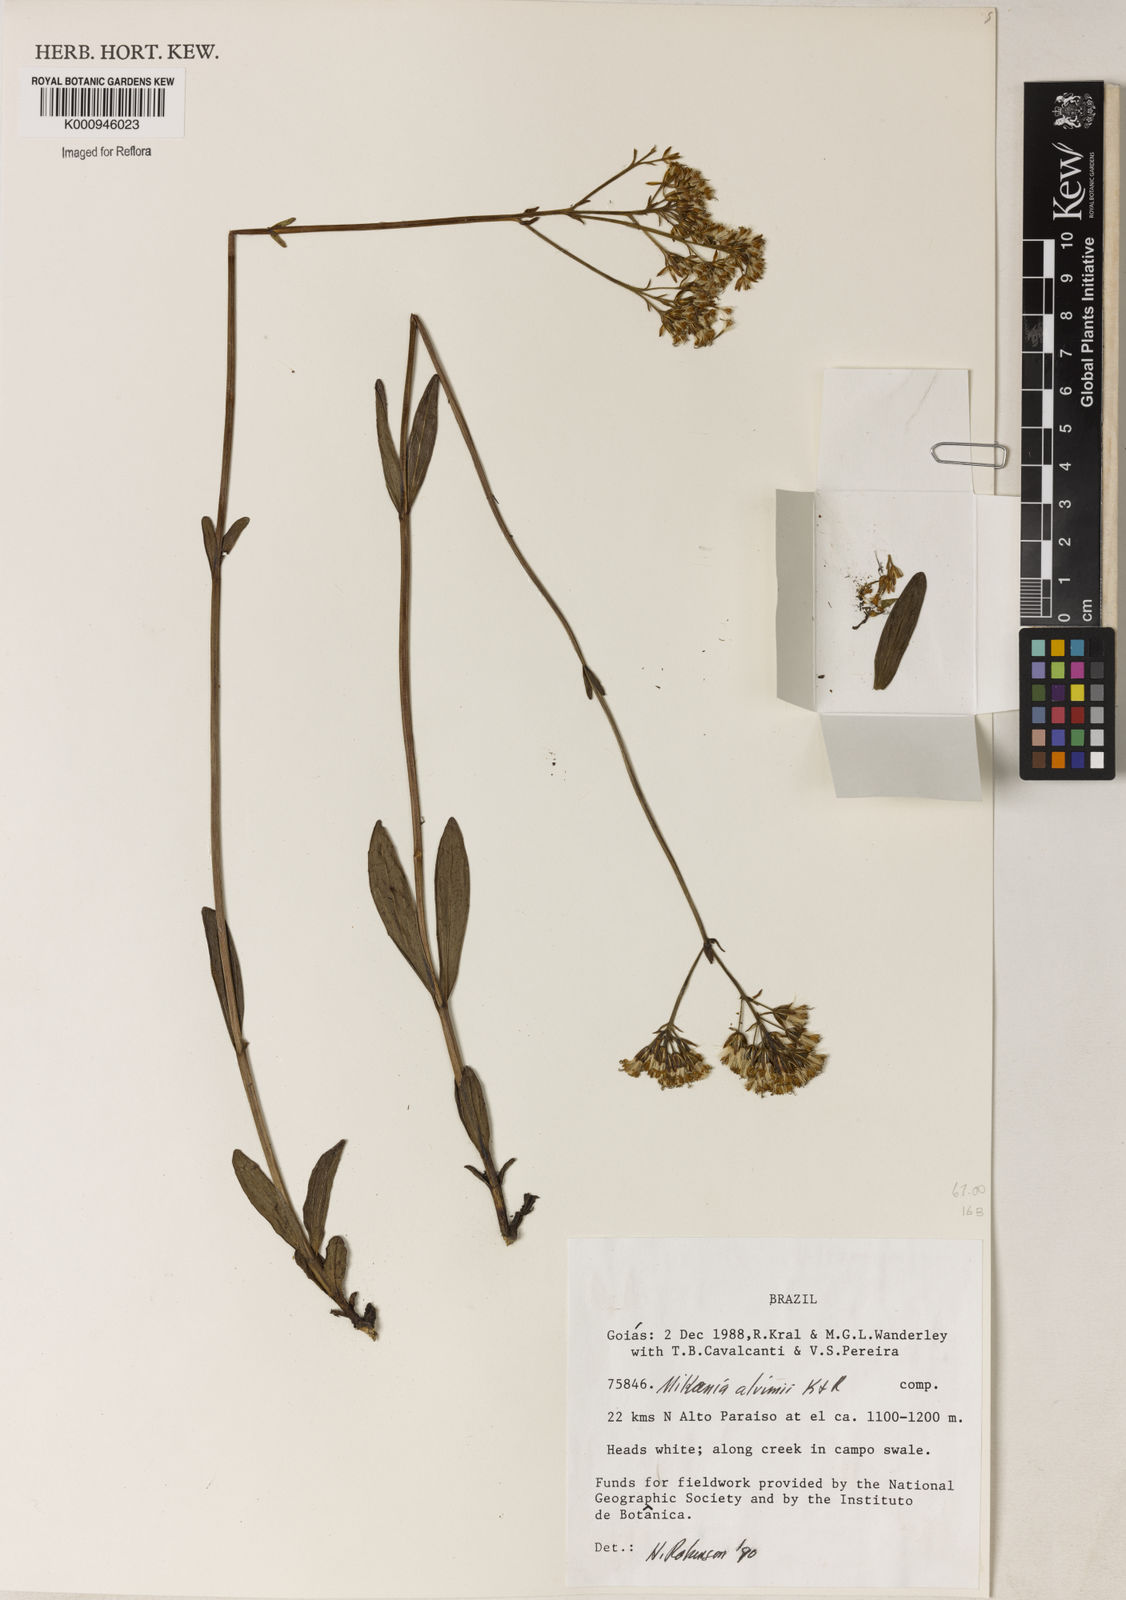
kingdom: Plantae
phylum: Tracheophyta
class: Magnoliopsida
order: Asterales
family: Asteraceae
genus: Mikania
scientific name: Mikania alvimii
